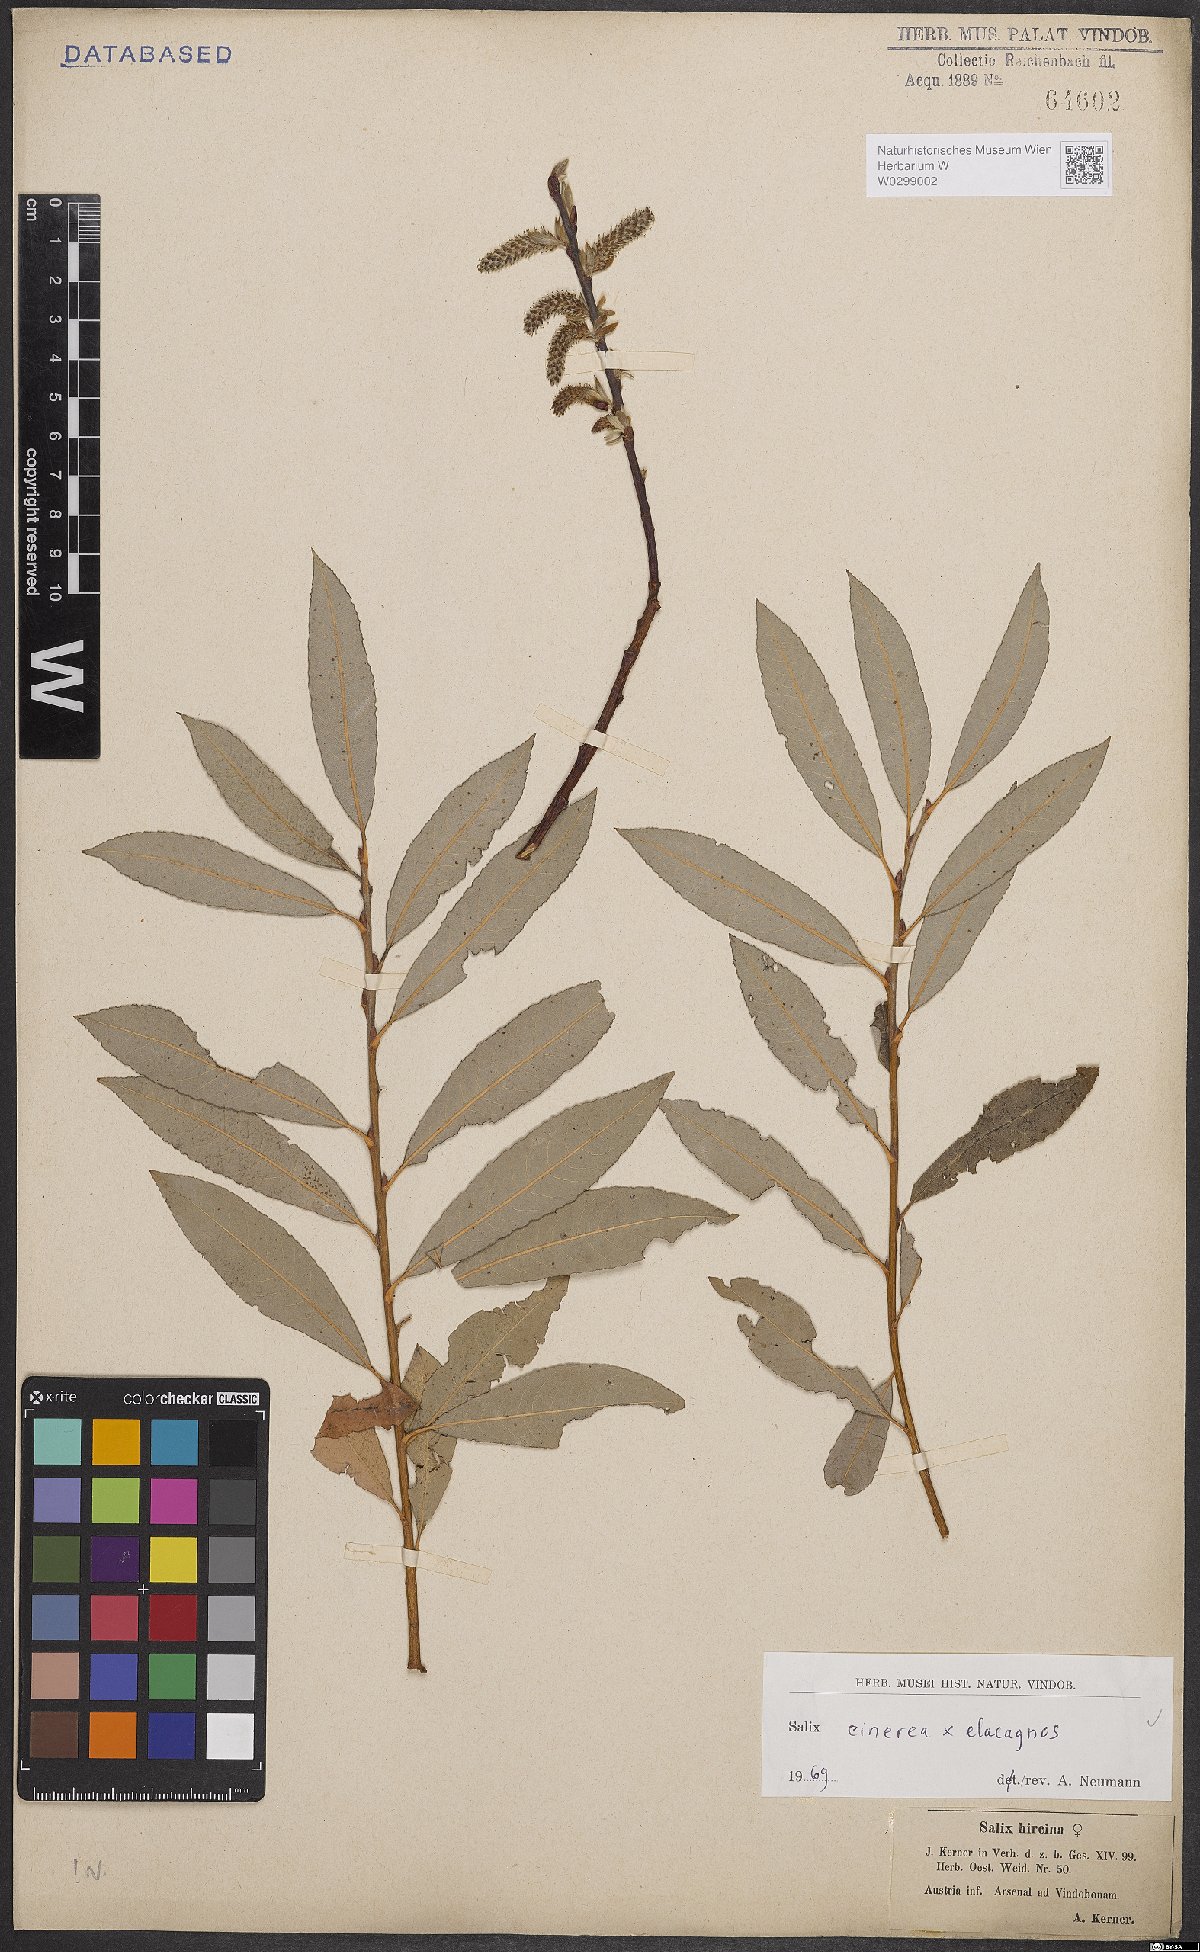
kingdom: Plantae
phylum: Tracheophyta
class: Magnoliopsida
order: Malpighiales
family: Salicaceae
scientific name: Salicaceae
